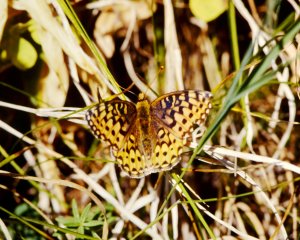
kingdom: Animalia
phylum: Arthropoda
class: Insecta
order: Lepidoptera
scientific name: Lepidoptera
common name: Butterflies
